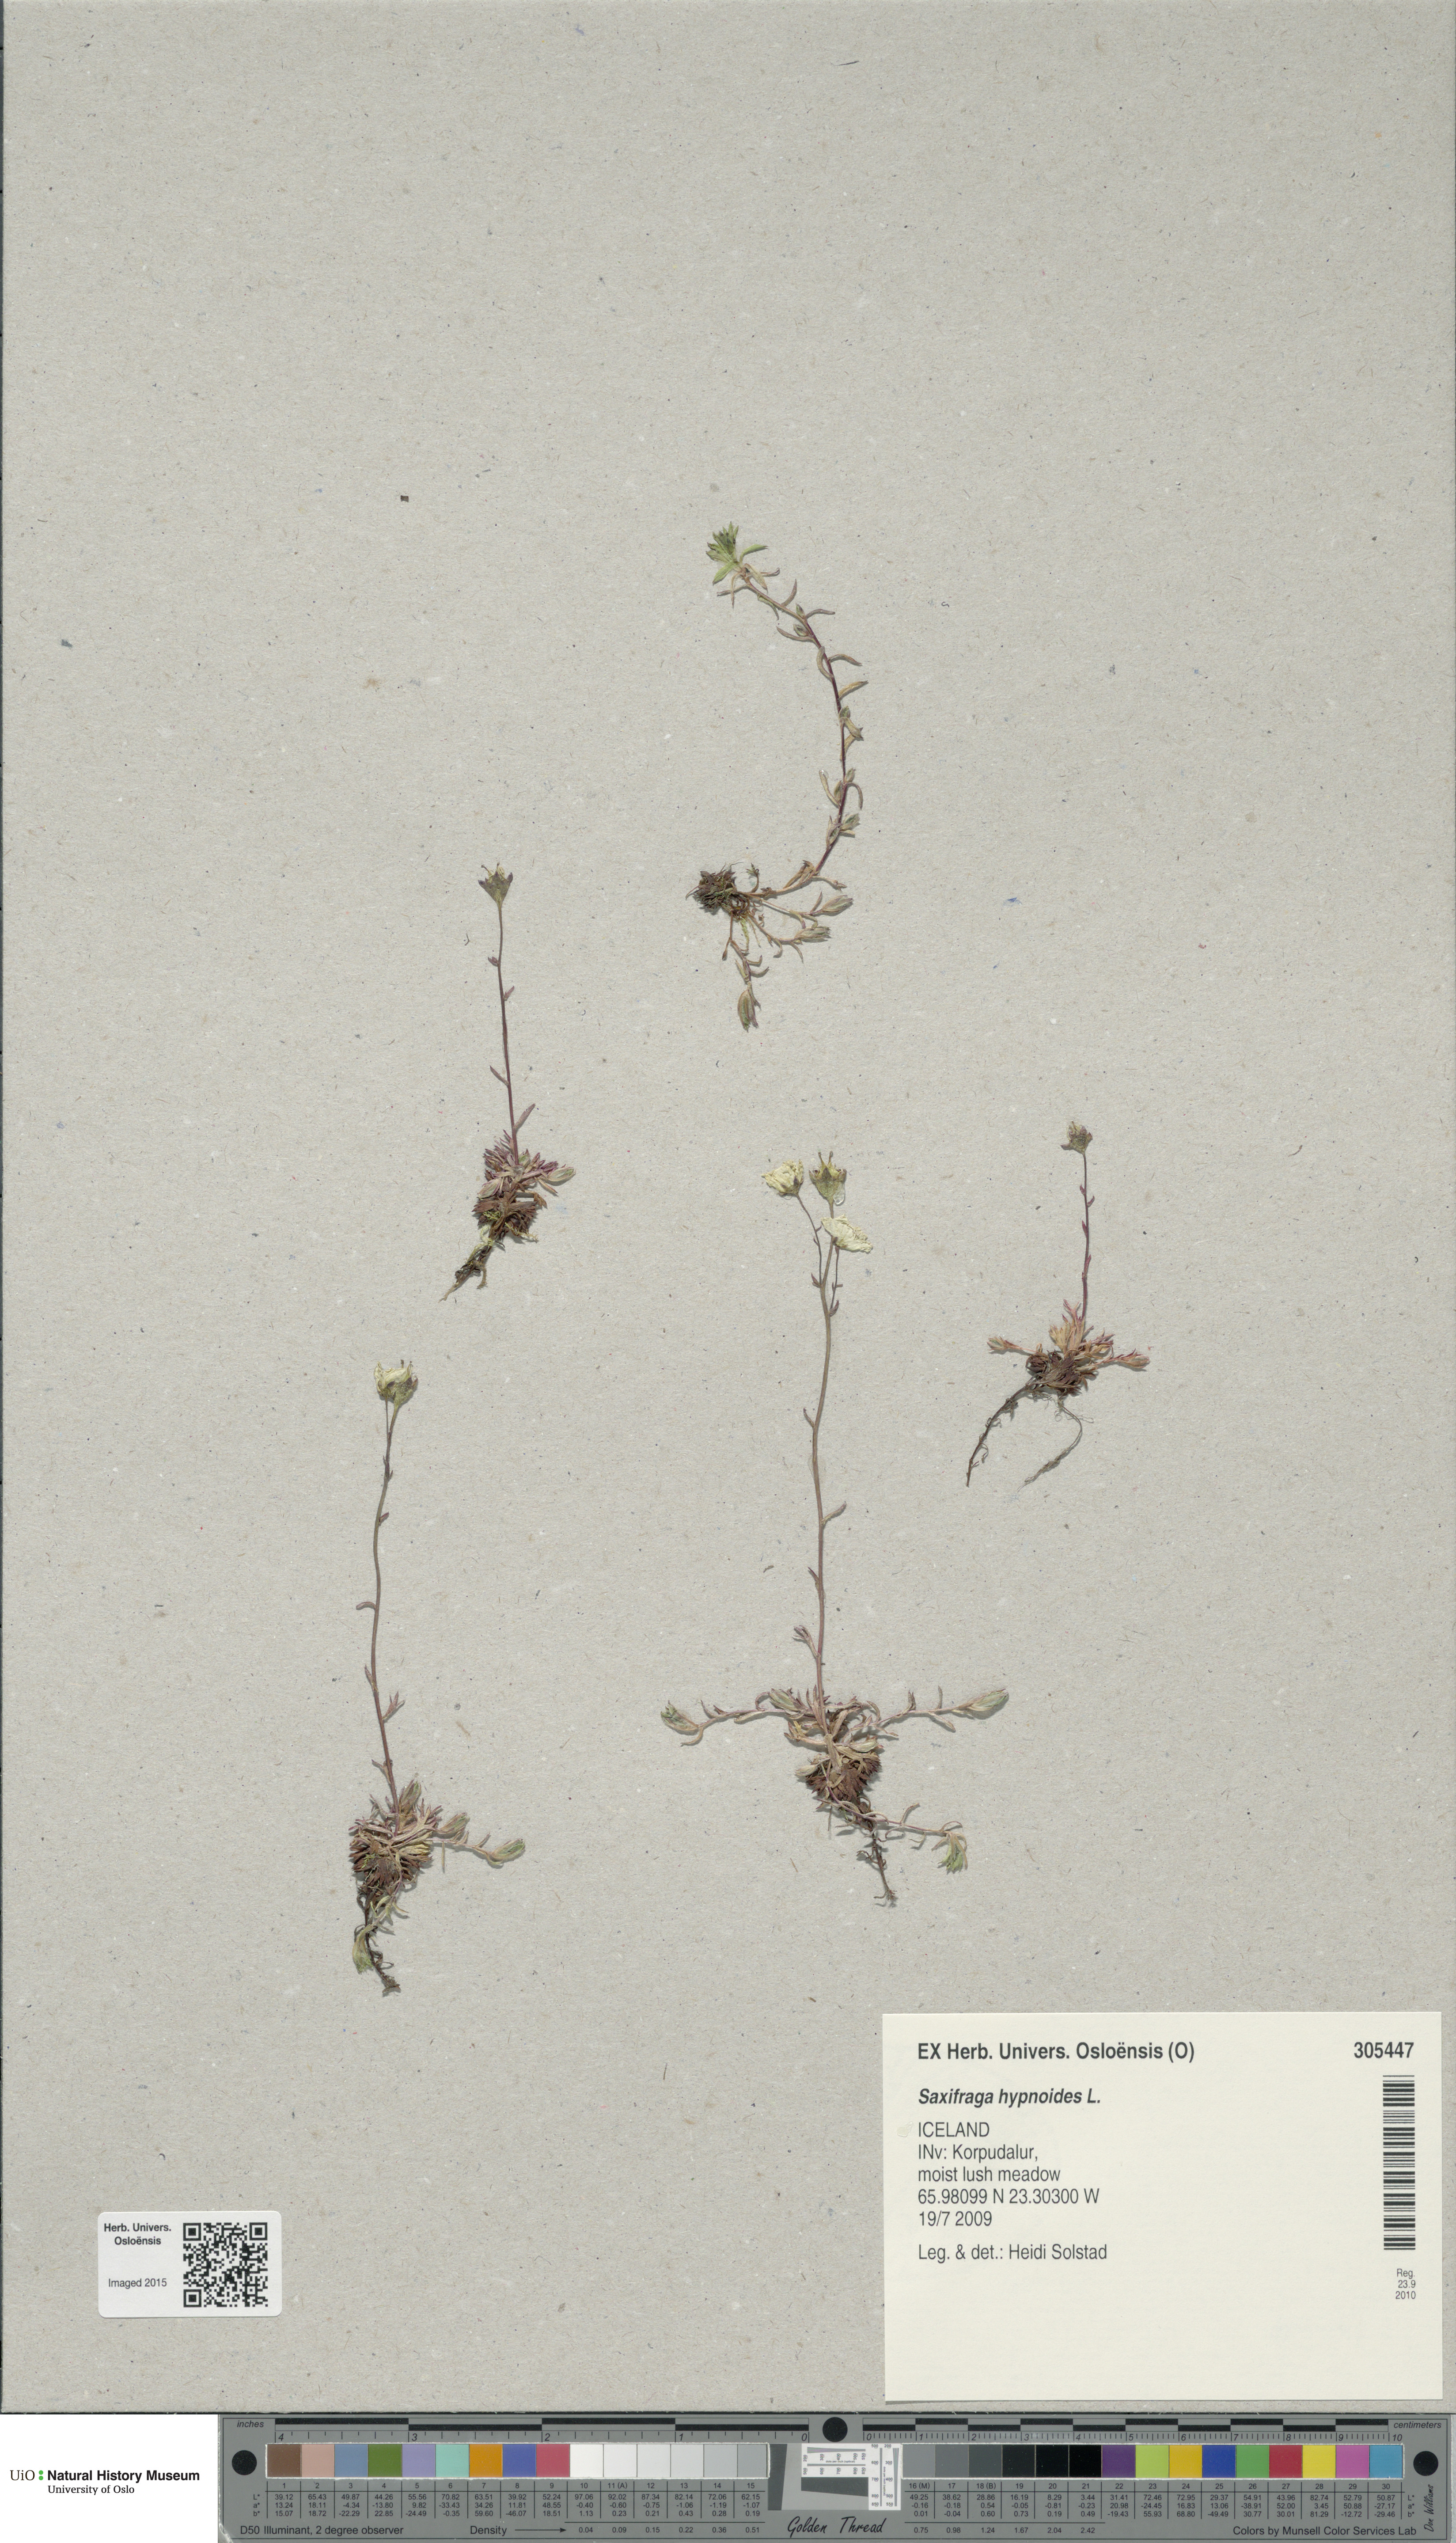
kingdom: Plantae
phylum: Tracheophyta
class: Magnoliopsida
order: Saxifragales
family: Saxifragaceae
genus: Saxifraga
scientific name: Saxifraga hypnoides
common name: Mossy saxifrage
